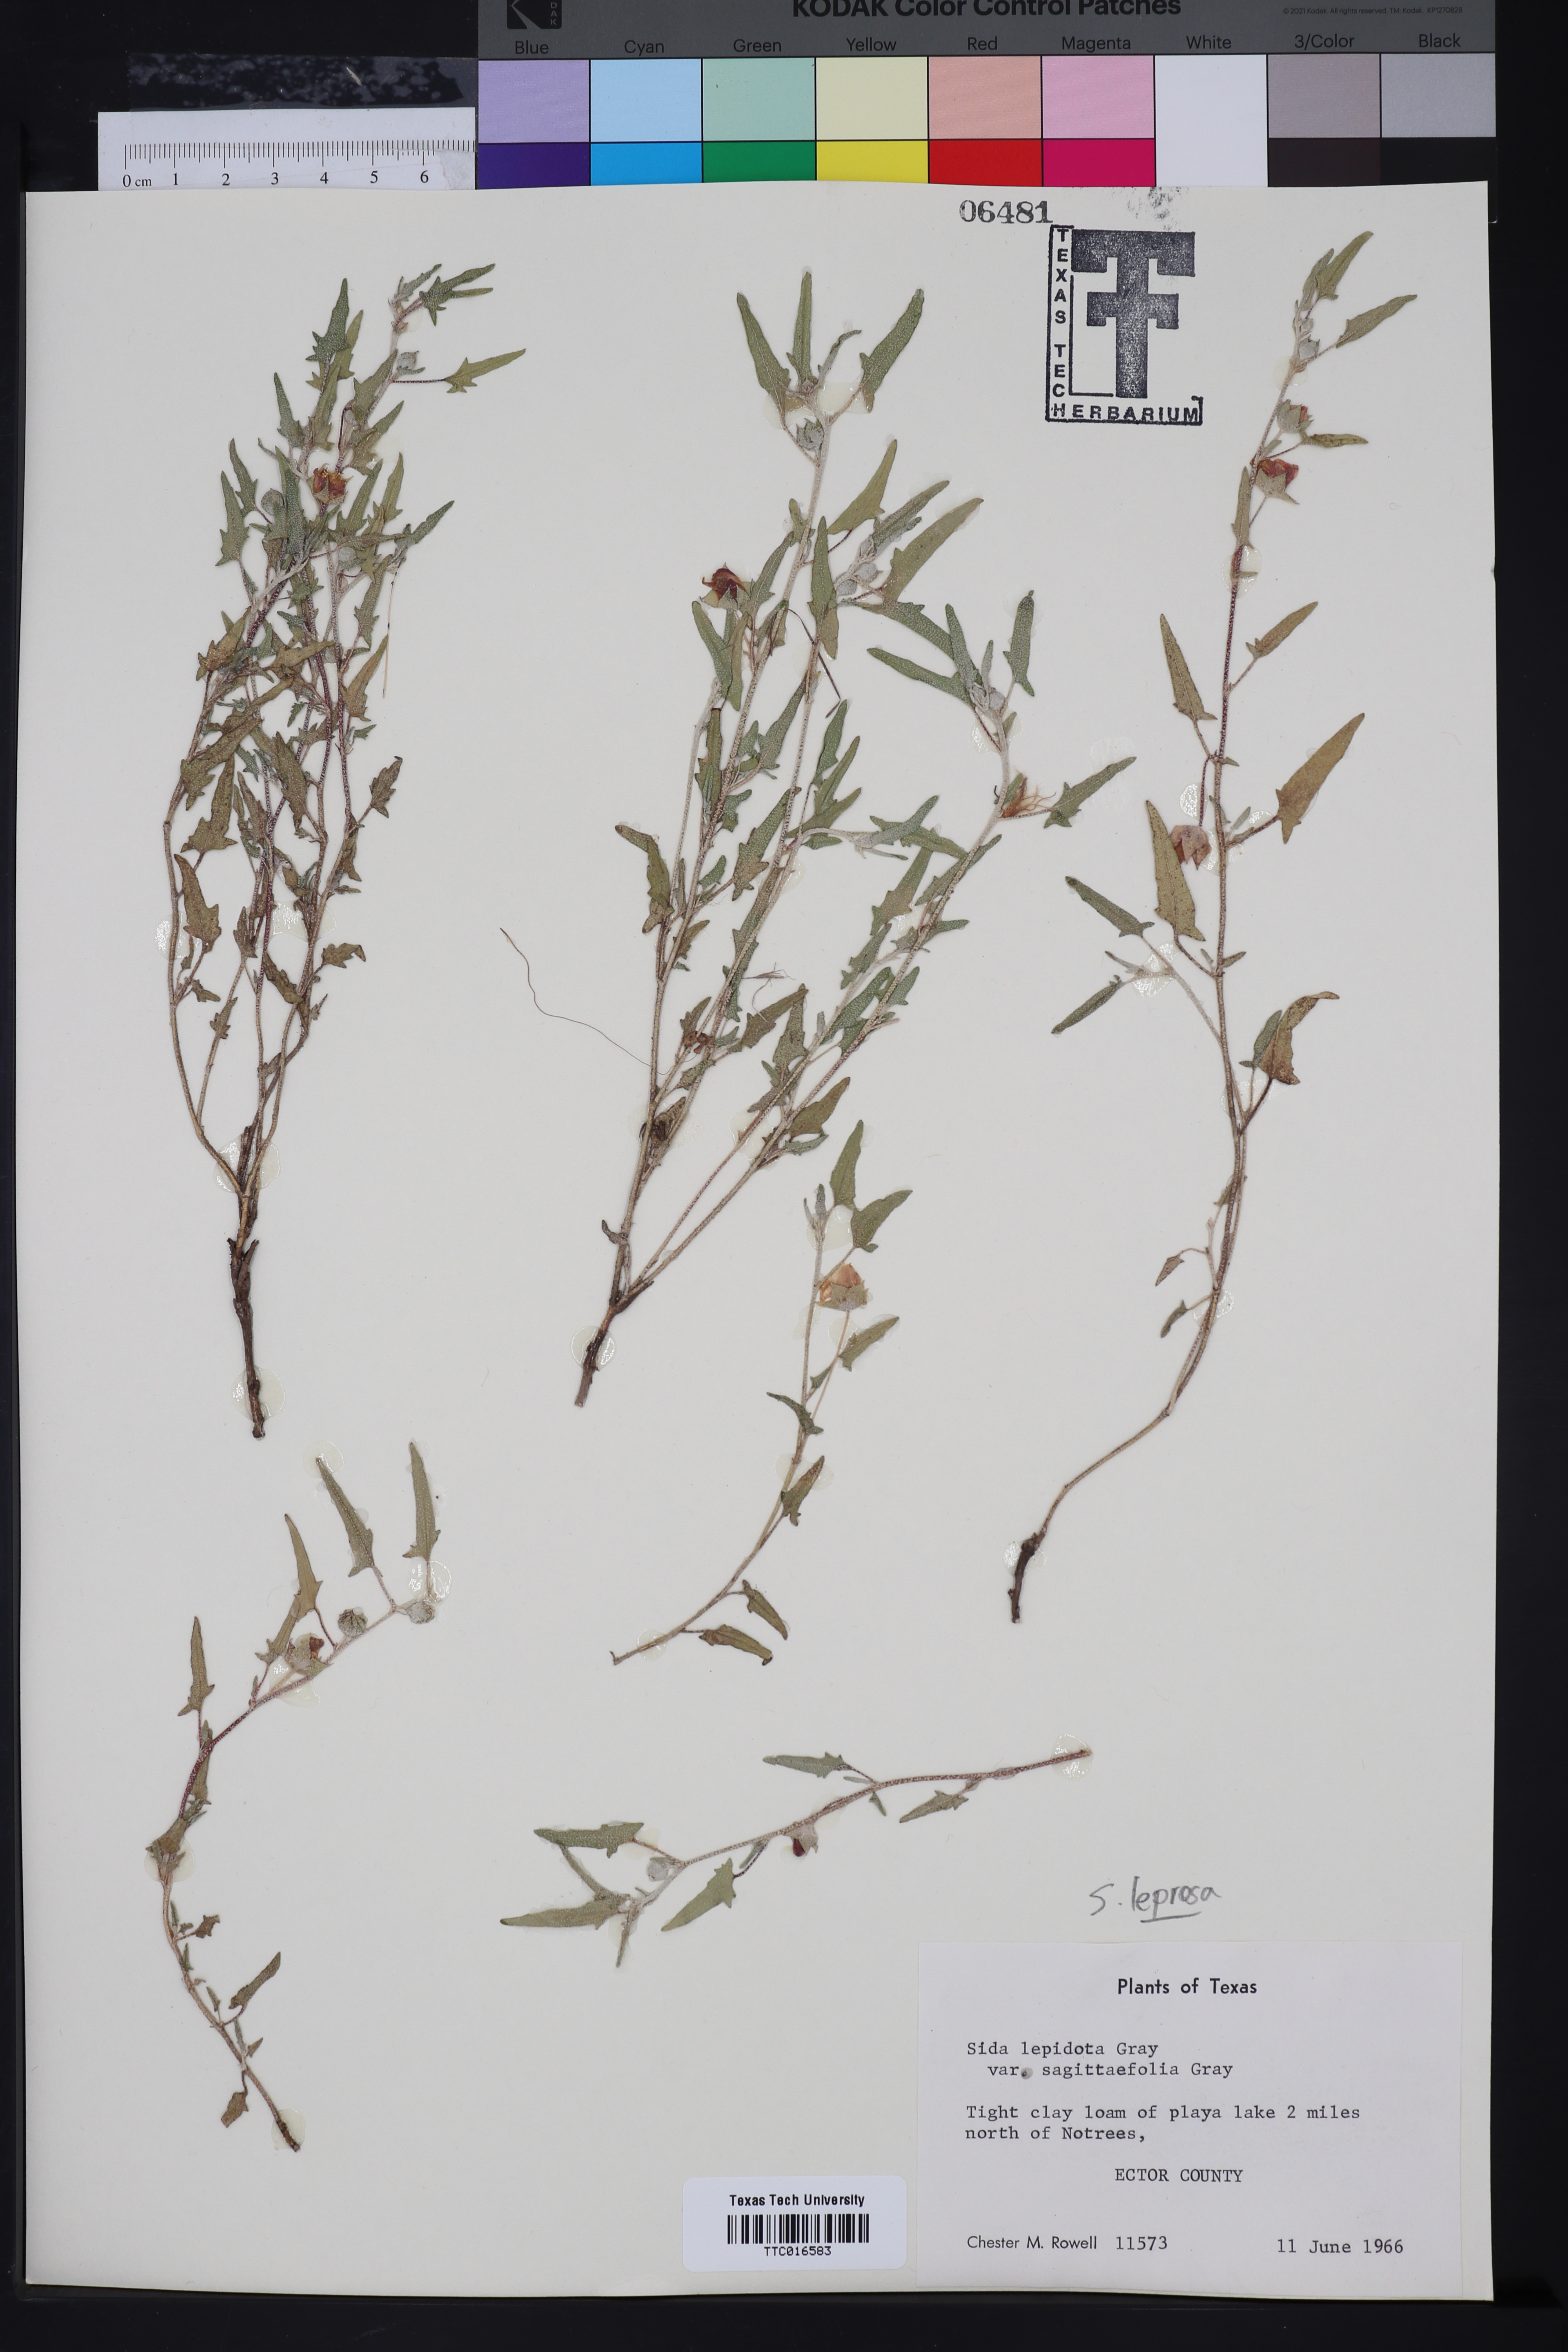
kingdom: Plantae
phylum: Tracheophyta
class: Magnoliopsida
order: Malvales
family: Malvaceae
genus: Malvella
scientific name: Malvella leprosa
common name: Alkali-mallow
